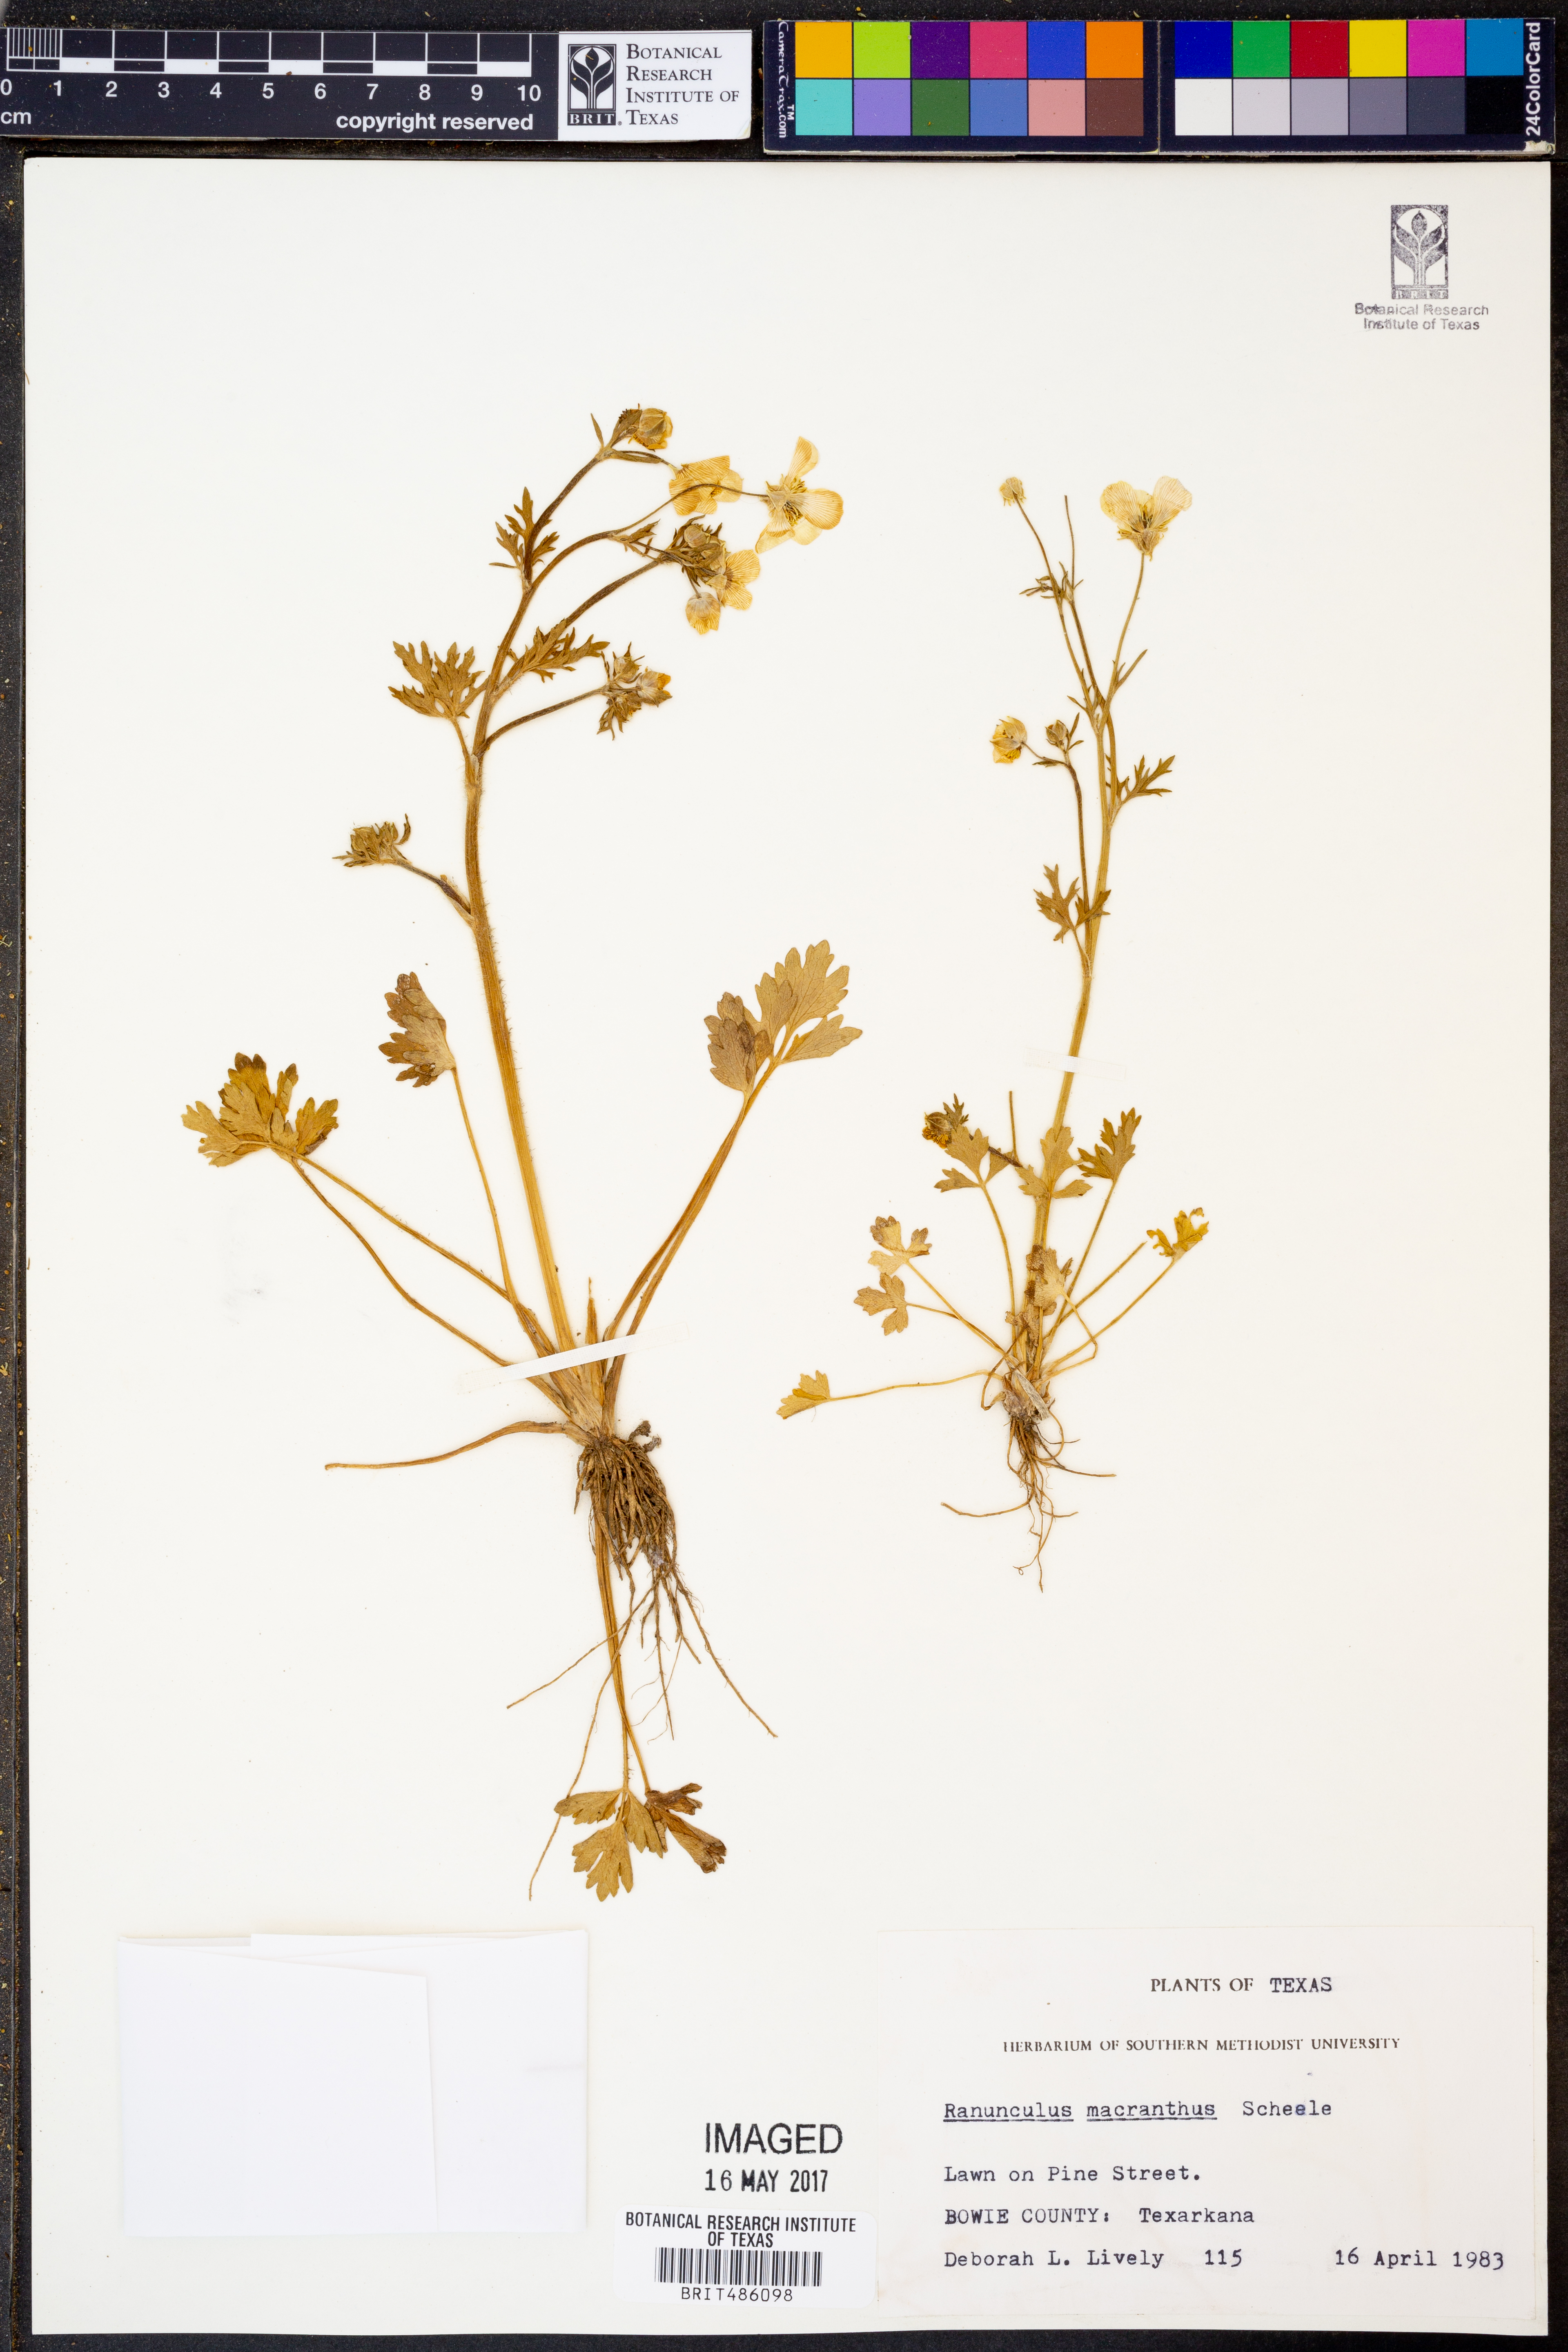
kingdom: Plantae
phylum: Tracheophyta
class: Magnoliopsida
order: Ranunculales
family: Ranunculaceae
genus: Ranunculus
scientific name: Ranunculus macranthus
